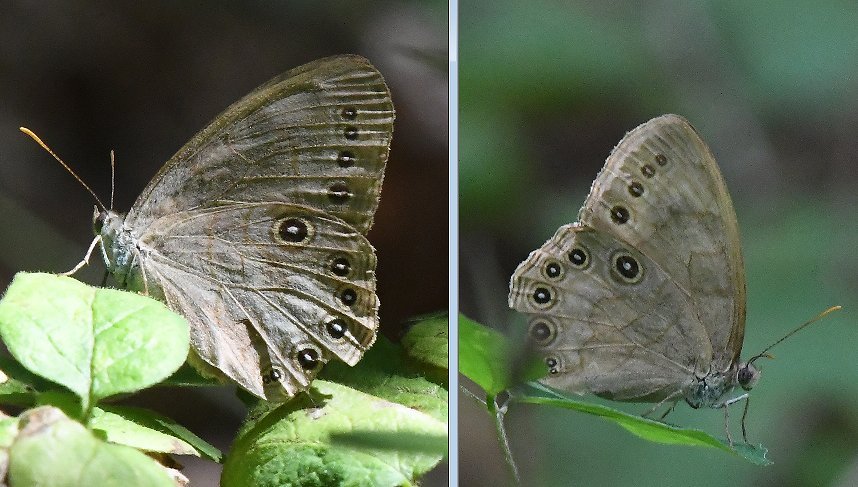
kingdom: Animalia
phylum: Arthropoda
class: Insecta
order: Lepidoptera
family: Nymphalidae
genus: Lethe
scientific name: Lethe eurydice
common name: Appalachian Eyed Brown
